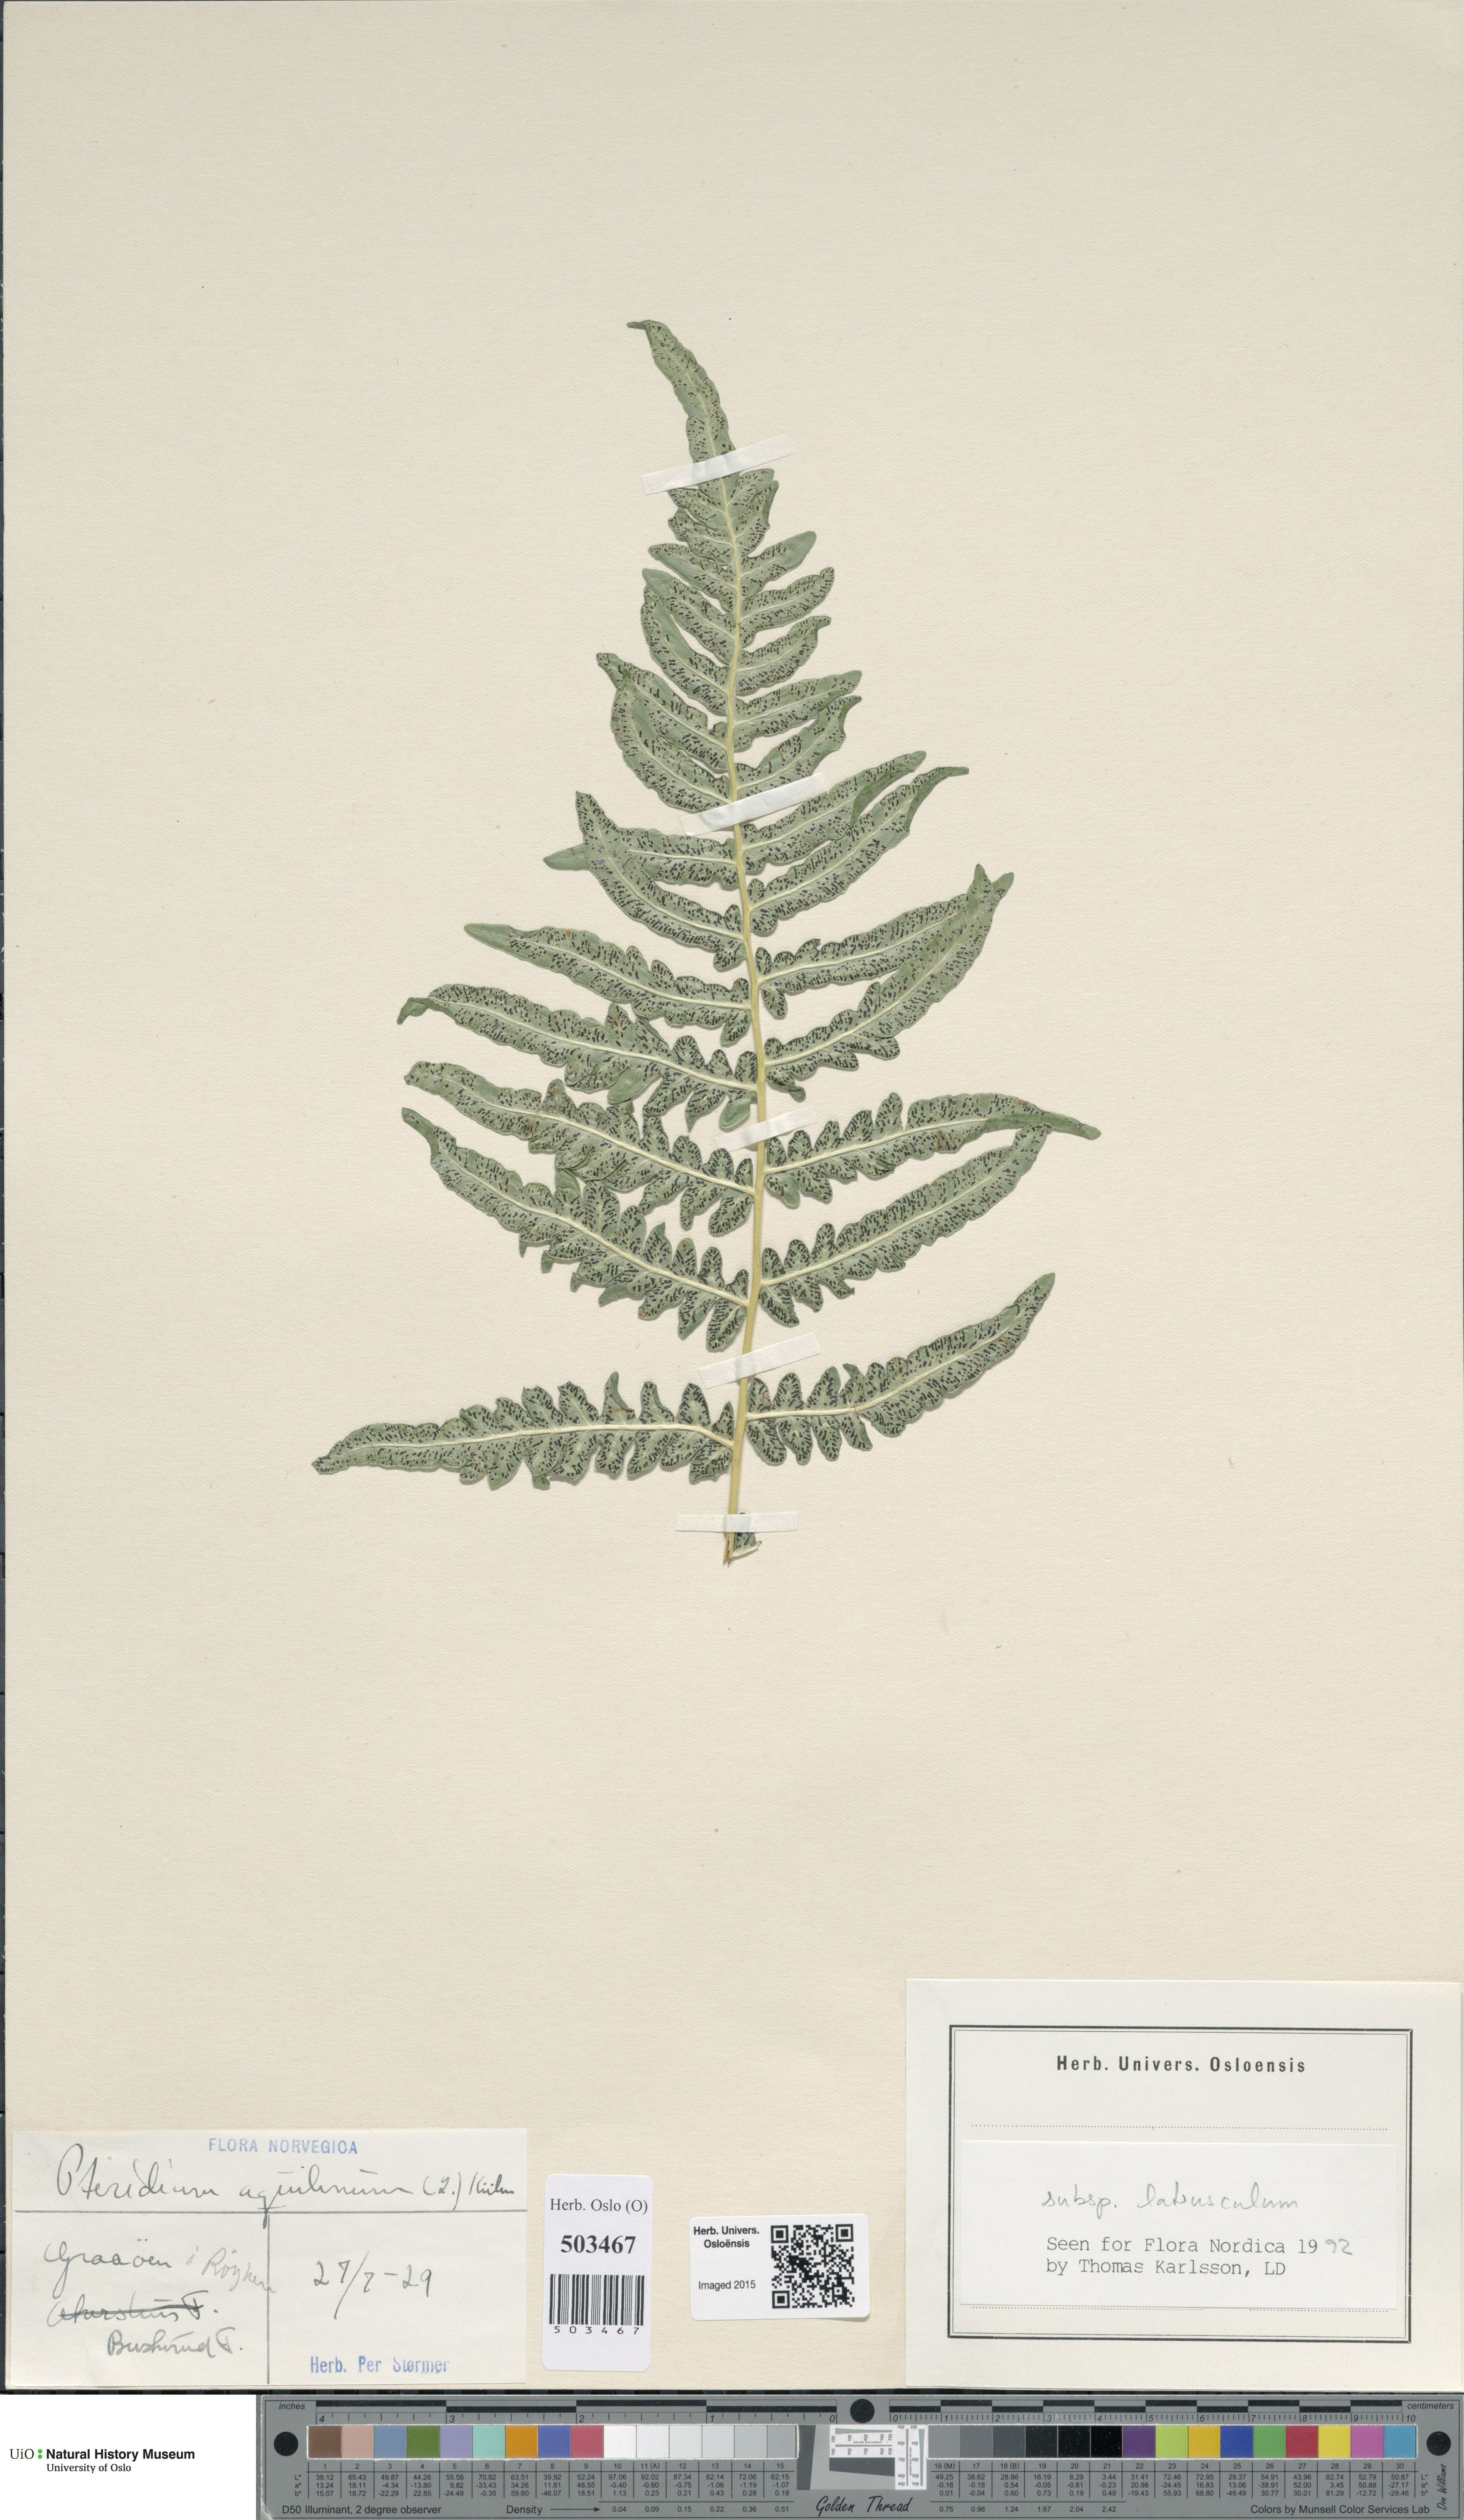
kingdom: Plantae
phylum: Tracheophyta
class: Polypodiopsida
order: Polypodiales
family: Dennstaedtiaceae
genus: Pteridium
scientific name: Pteridium aquilinum
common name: Bracken
